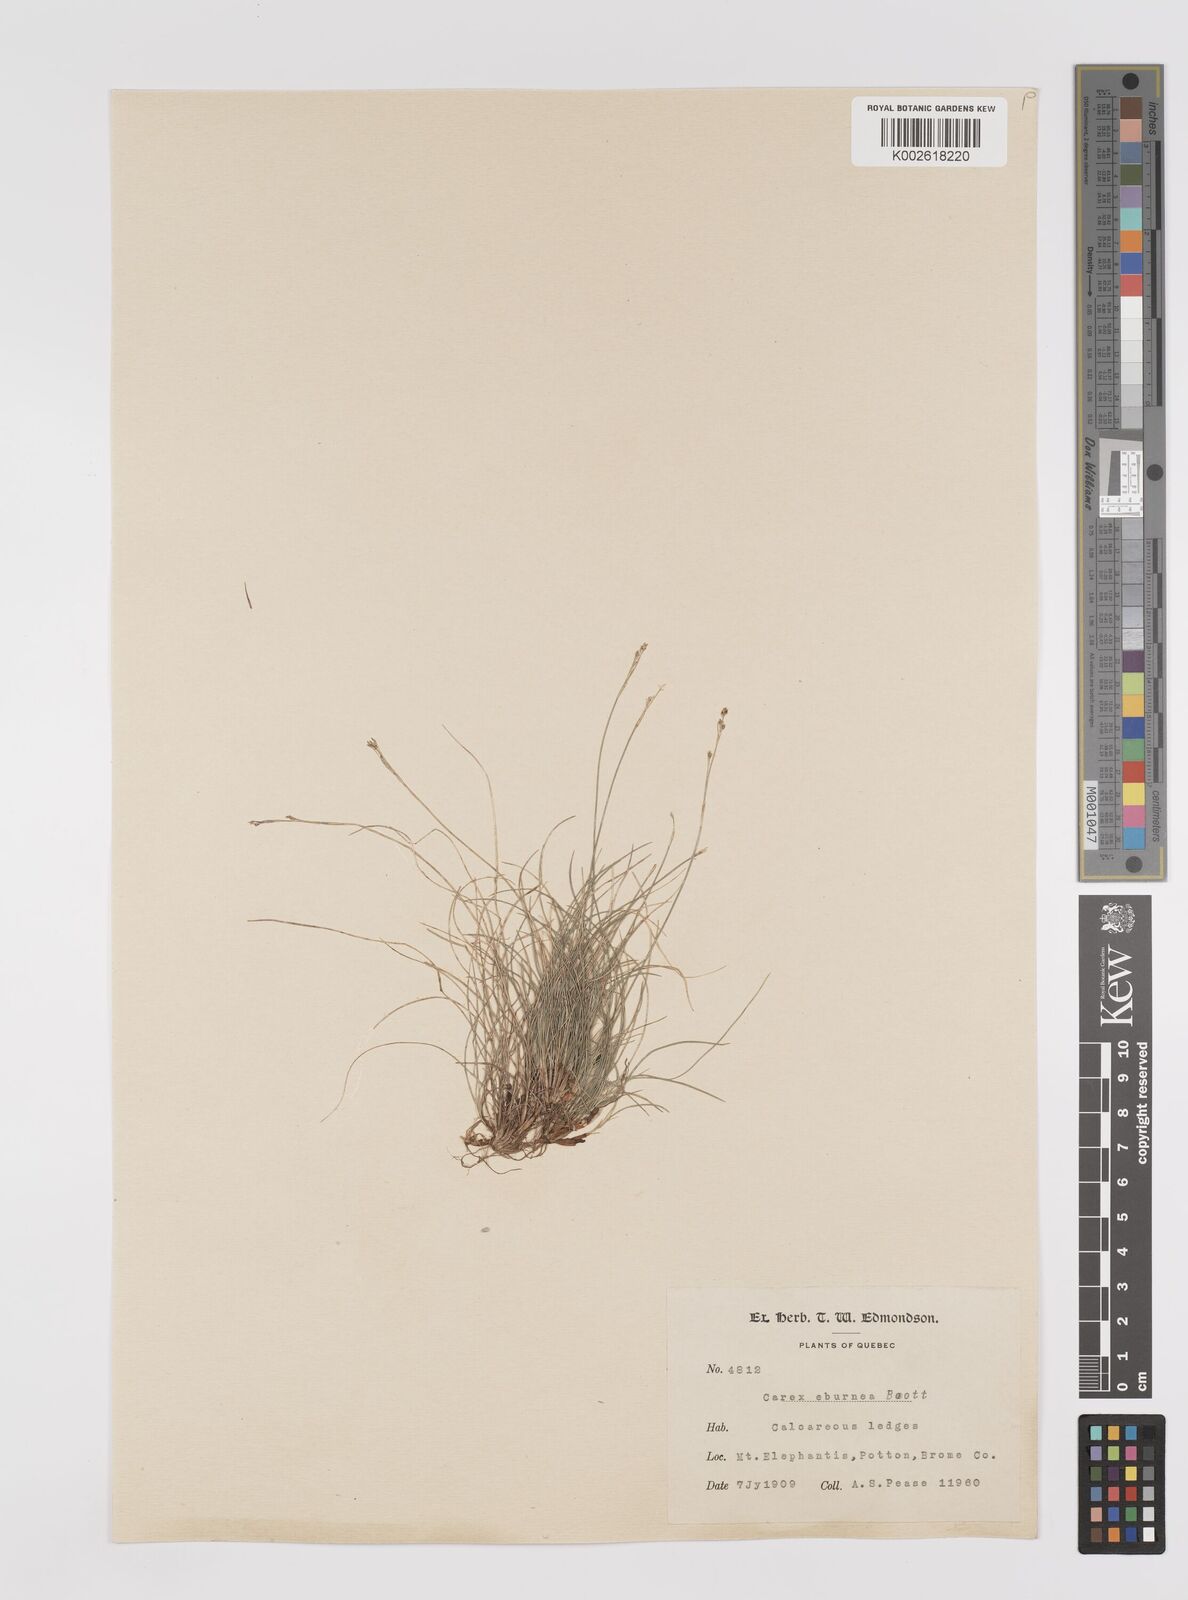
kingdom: Plantae
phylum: Tracheophyta
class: Liliopsida
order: Poales
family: Cyperaceae
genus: Carex
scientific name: Carex eburnea
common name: Bristle-leaved sedge
